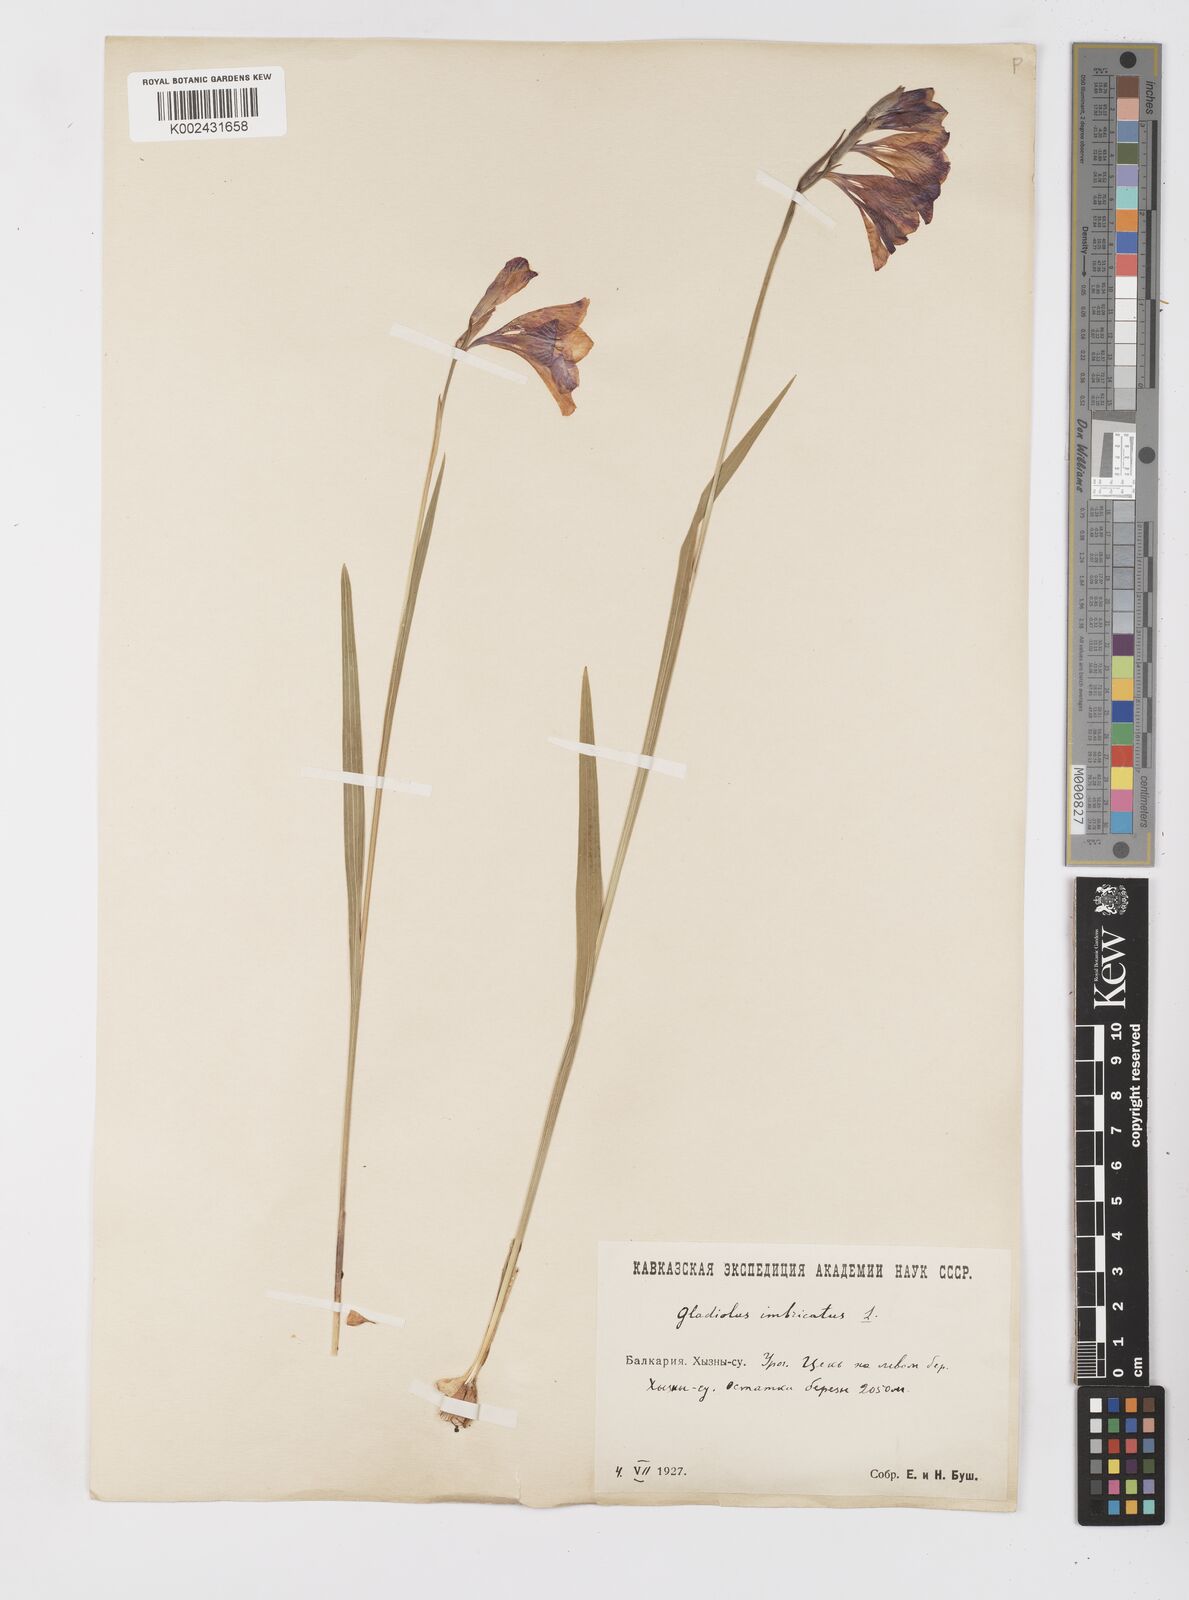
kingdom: Plantae
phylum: Tracheophyta
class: Liliopsida
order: Asparagales
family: Iridaceae
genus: Gladiolus
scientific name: Gladiolus imbricatus
